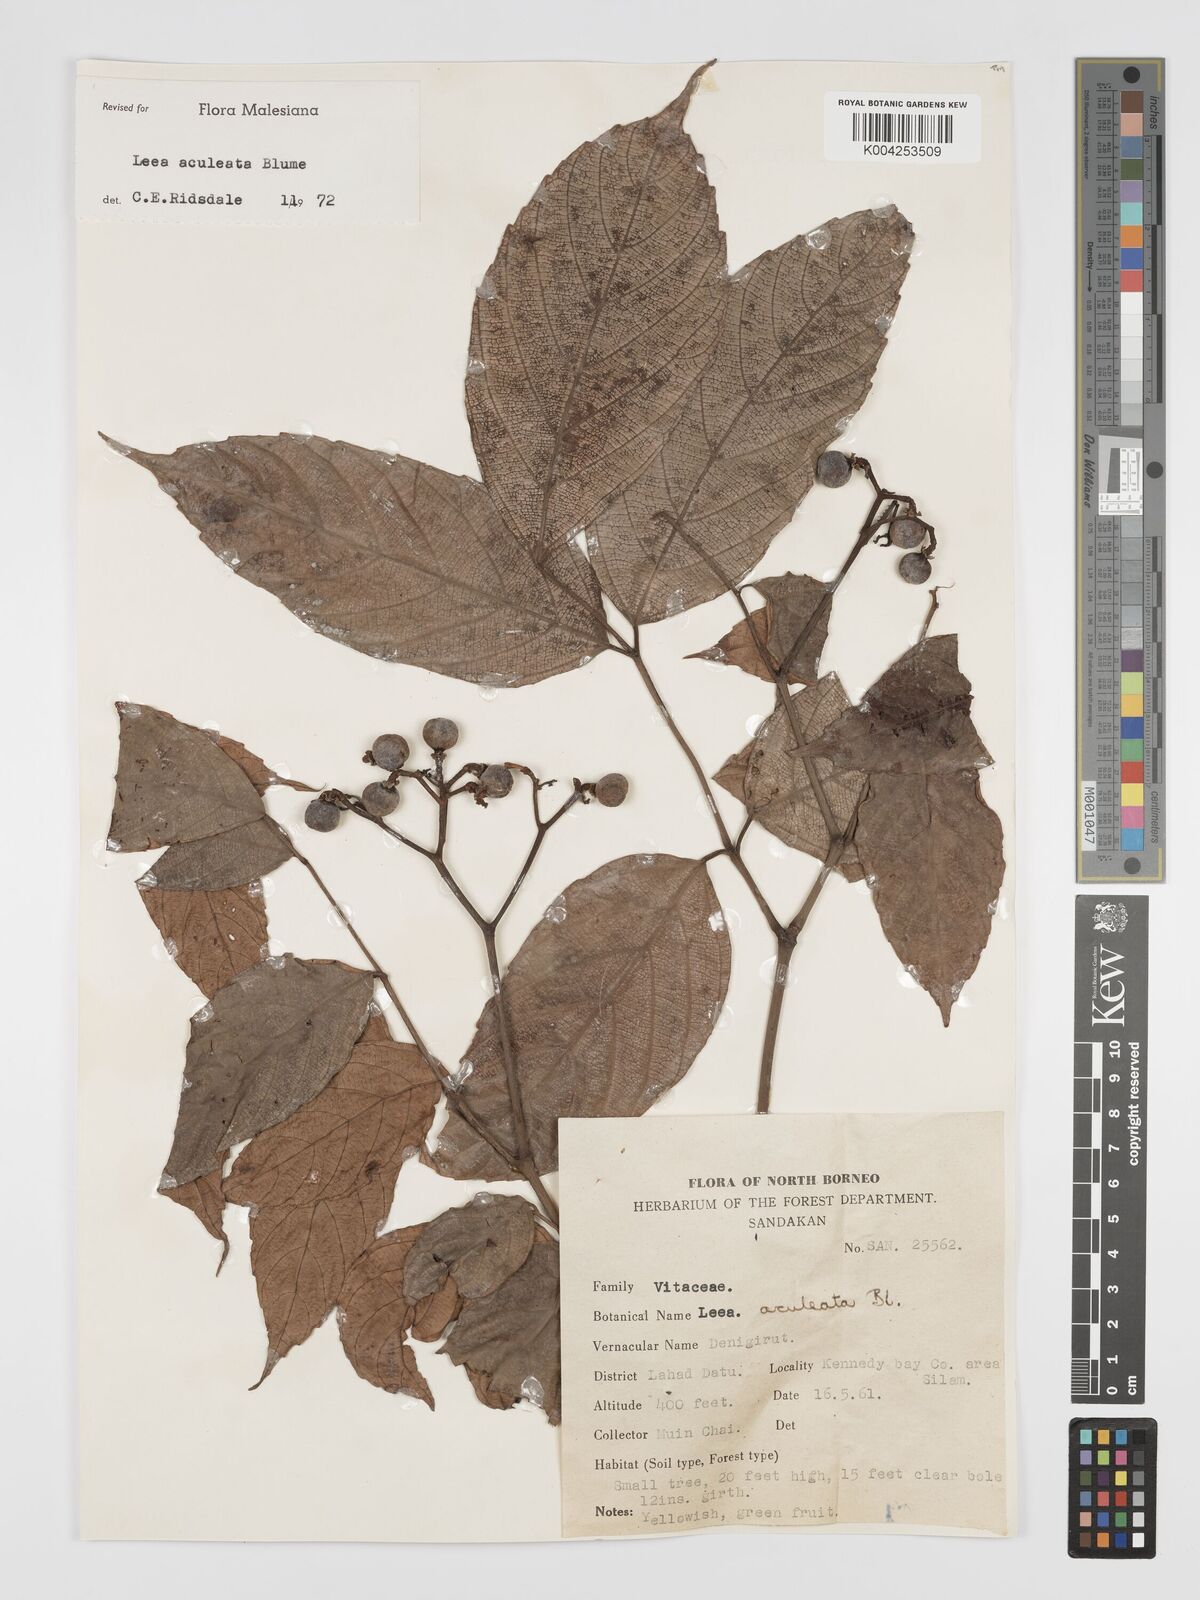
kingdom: Plantae
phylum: Tracheophyta
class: Magnoliopsida
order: Vitales
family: Vitaceae
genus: Leea
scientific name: Leea aculeata
